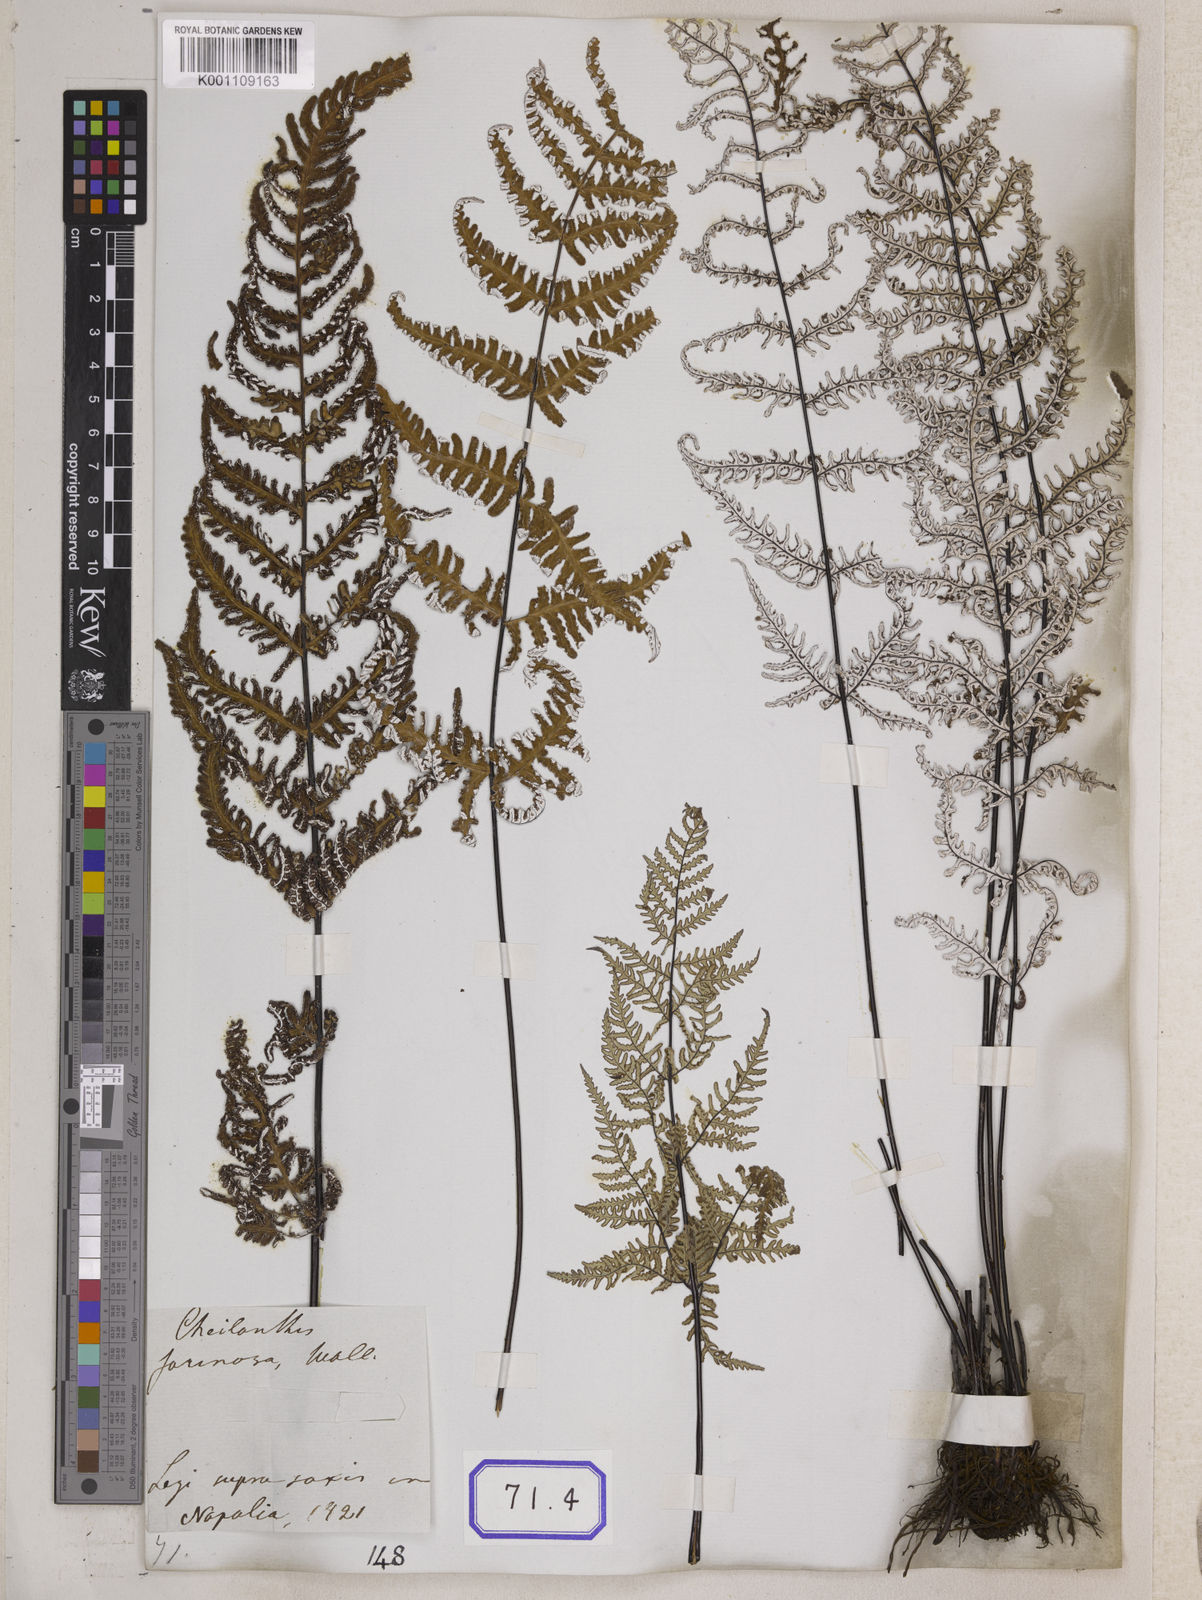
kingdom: Plantae
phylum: Tracheophyta
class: Polypodiopsida
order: Polypodiales
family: Pteridaceae
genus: Argyrochosma
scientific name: Argyrochosma dealbata
